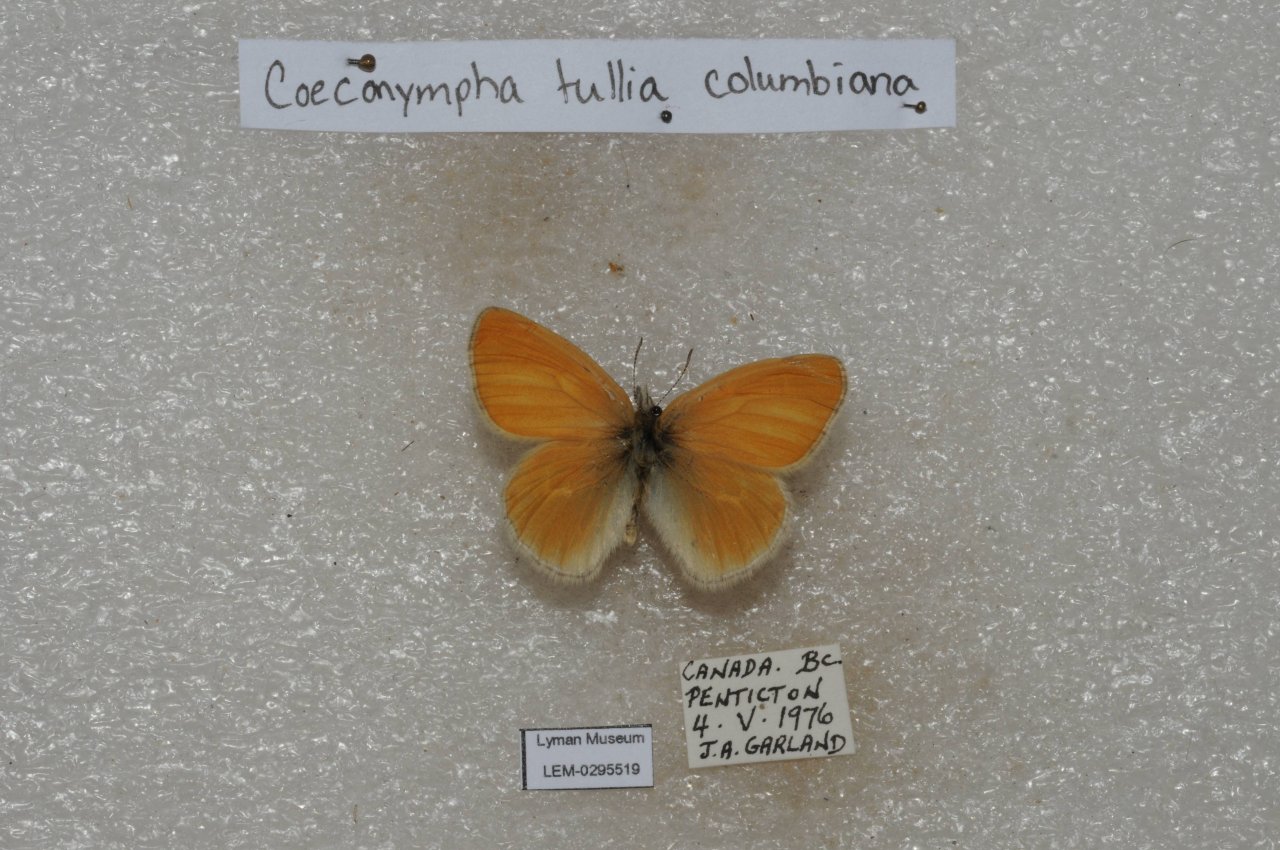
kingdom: Animalia
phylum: Arthropoda
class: Insecta
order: Lepidoptera
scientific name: Lepidoptera
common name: Butterflies
